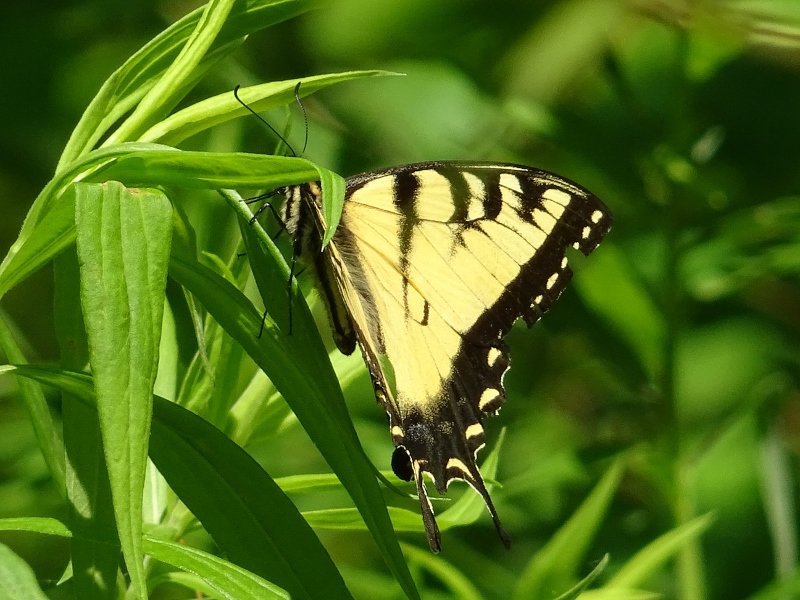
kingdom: Animalia
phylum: Arthropoda
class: Insecta
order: Lepidoptera
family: Papilionidae
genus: Pterourus
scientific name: Pterourus glaucus
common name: Eastern Tiger Swallowtail
